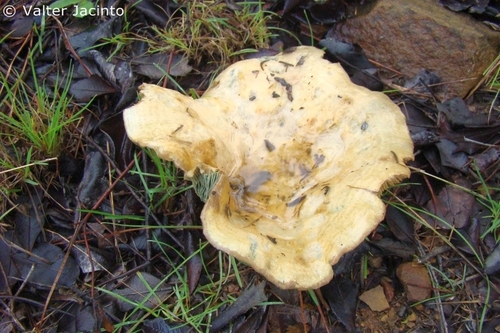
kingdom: Fungi
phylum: Basidiomycota
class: Agaricomycetes
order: Russulales
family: Russulaceae
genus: Lactarius
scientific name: Lactarius sanguifluus
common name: Bloody milkcap
